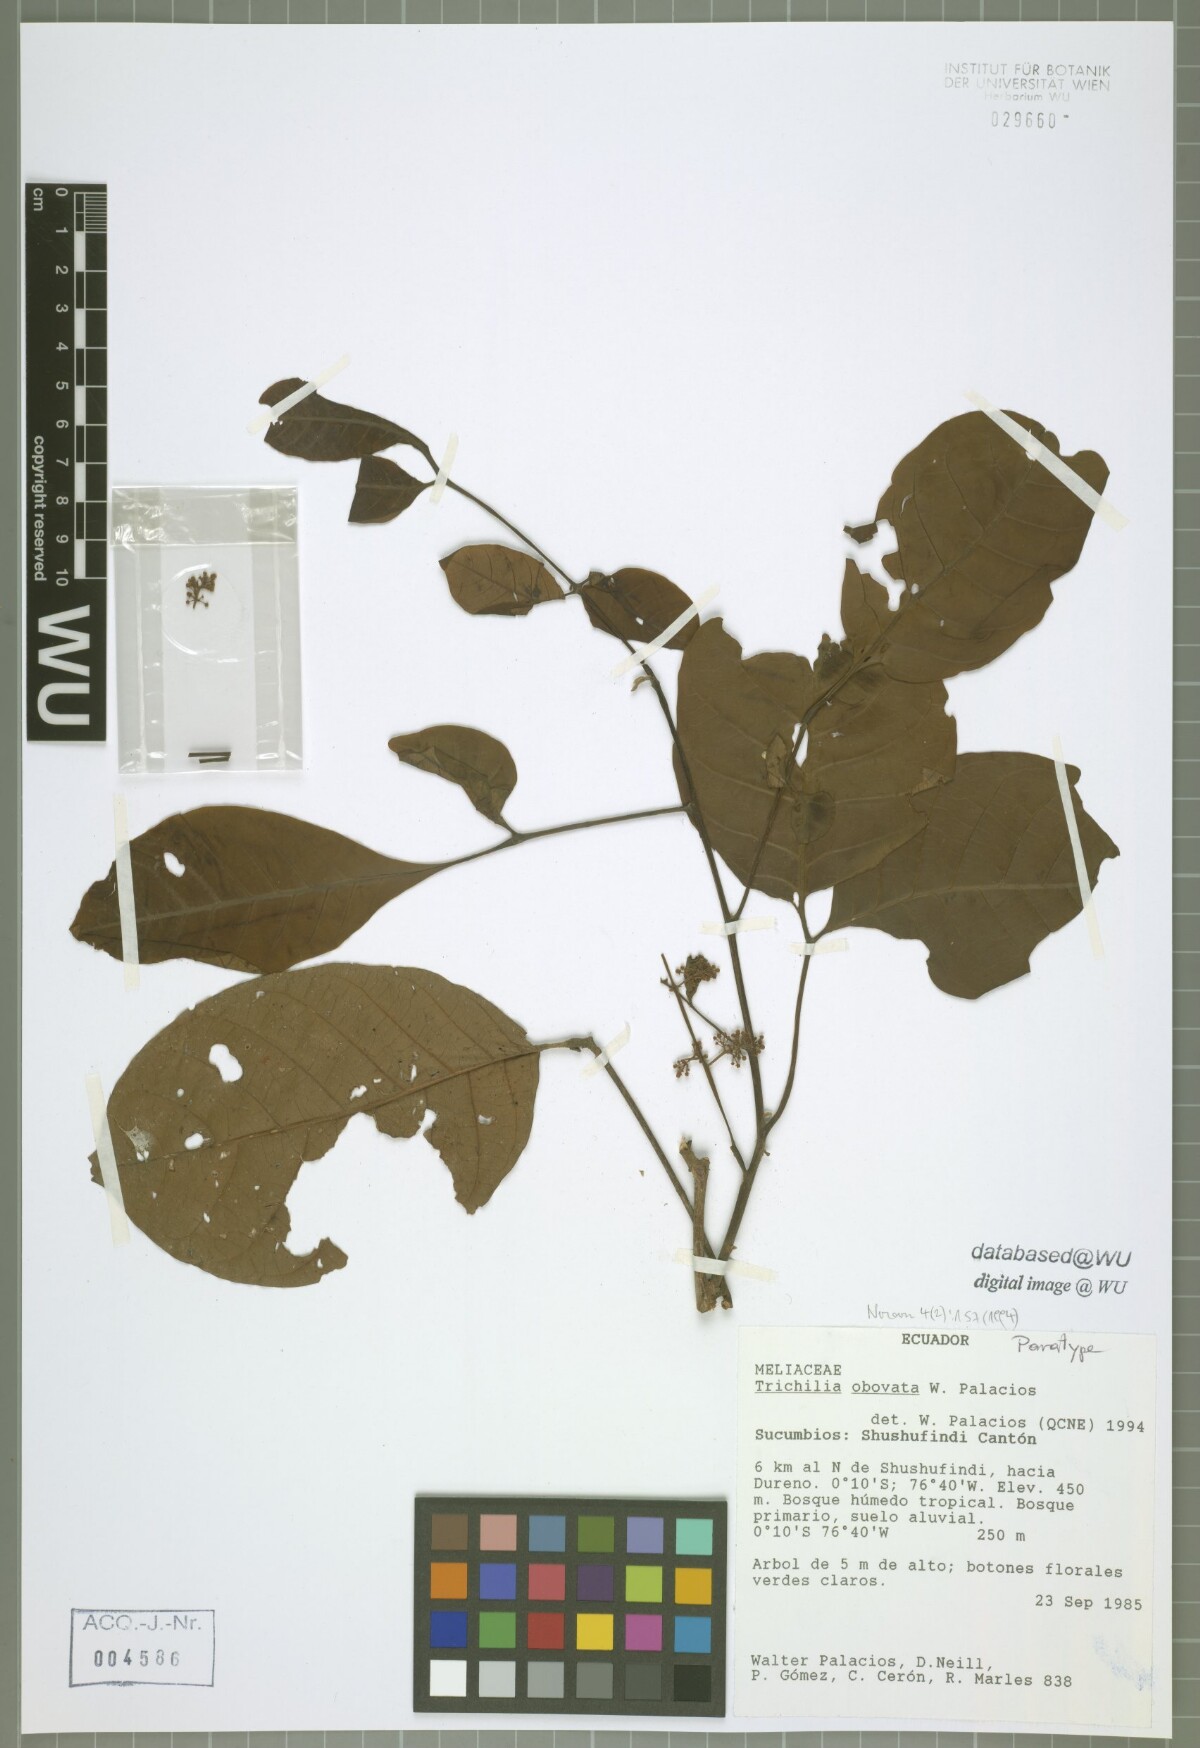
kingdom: Plantae
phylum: Tracheophyta
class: Magnoliopsida
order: Sapindales
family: Meliaceae
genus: Trichilia
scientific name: Trichilia obovata
